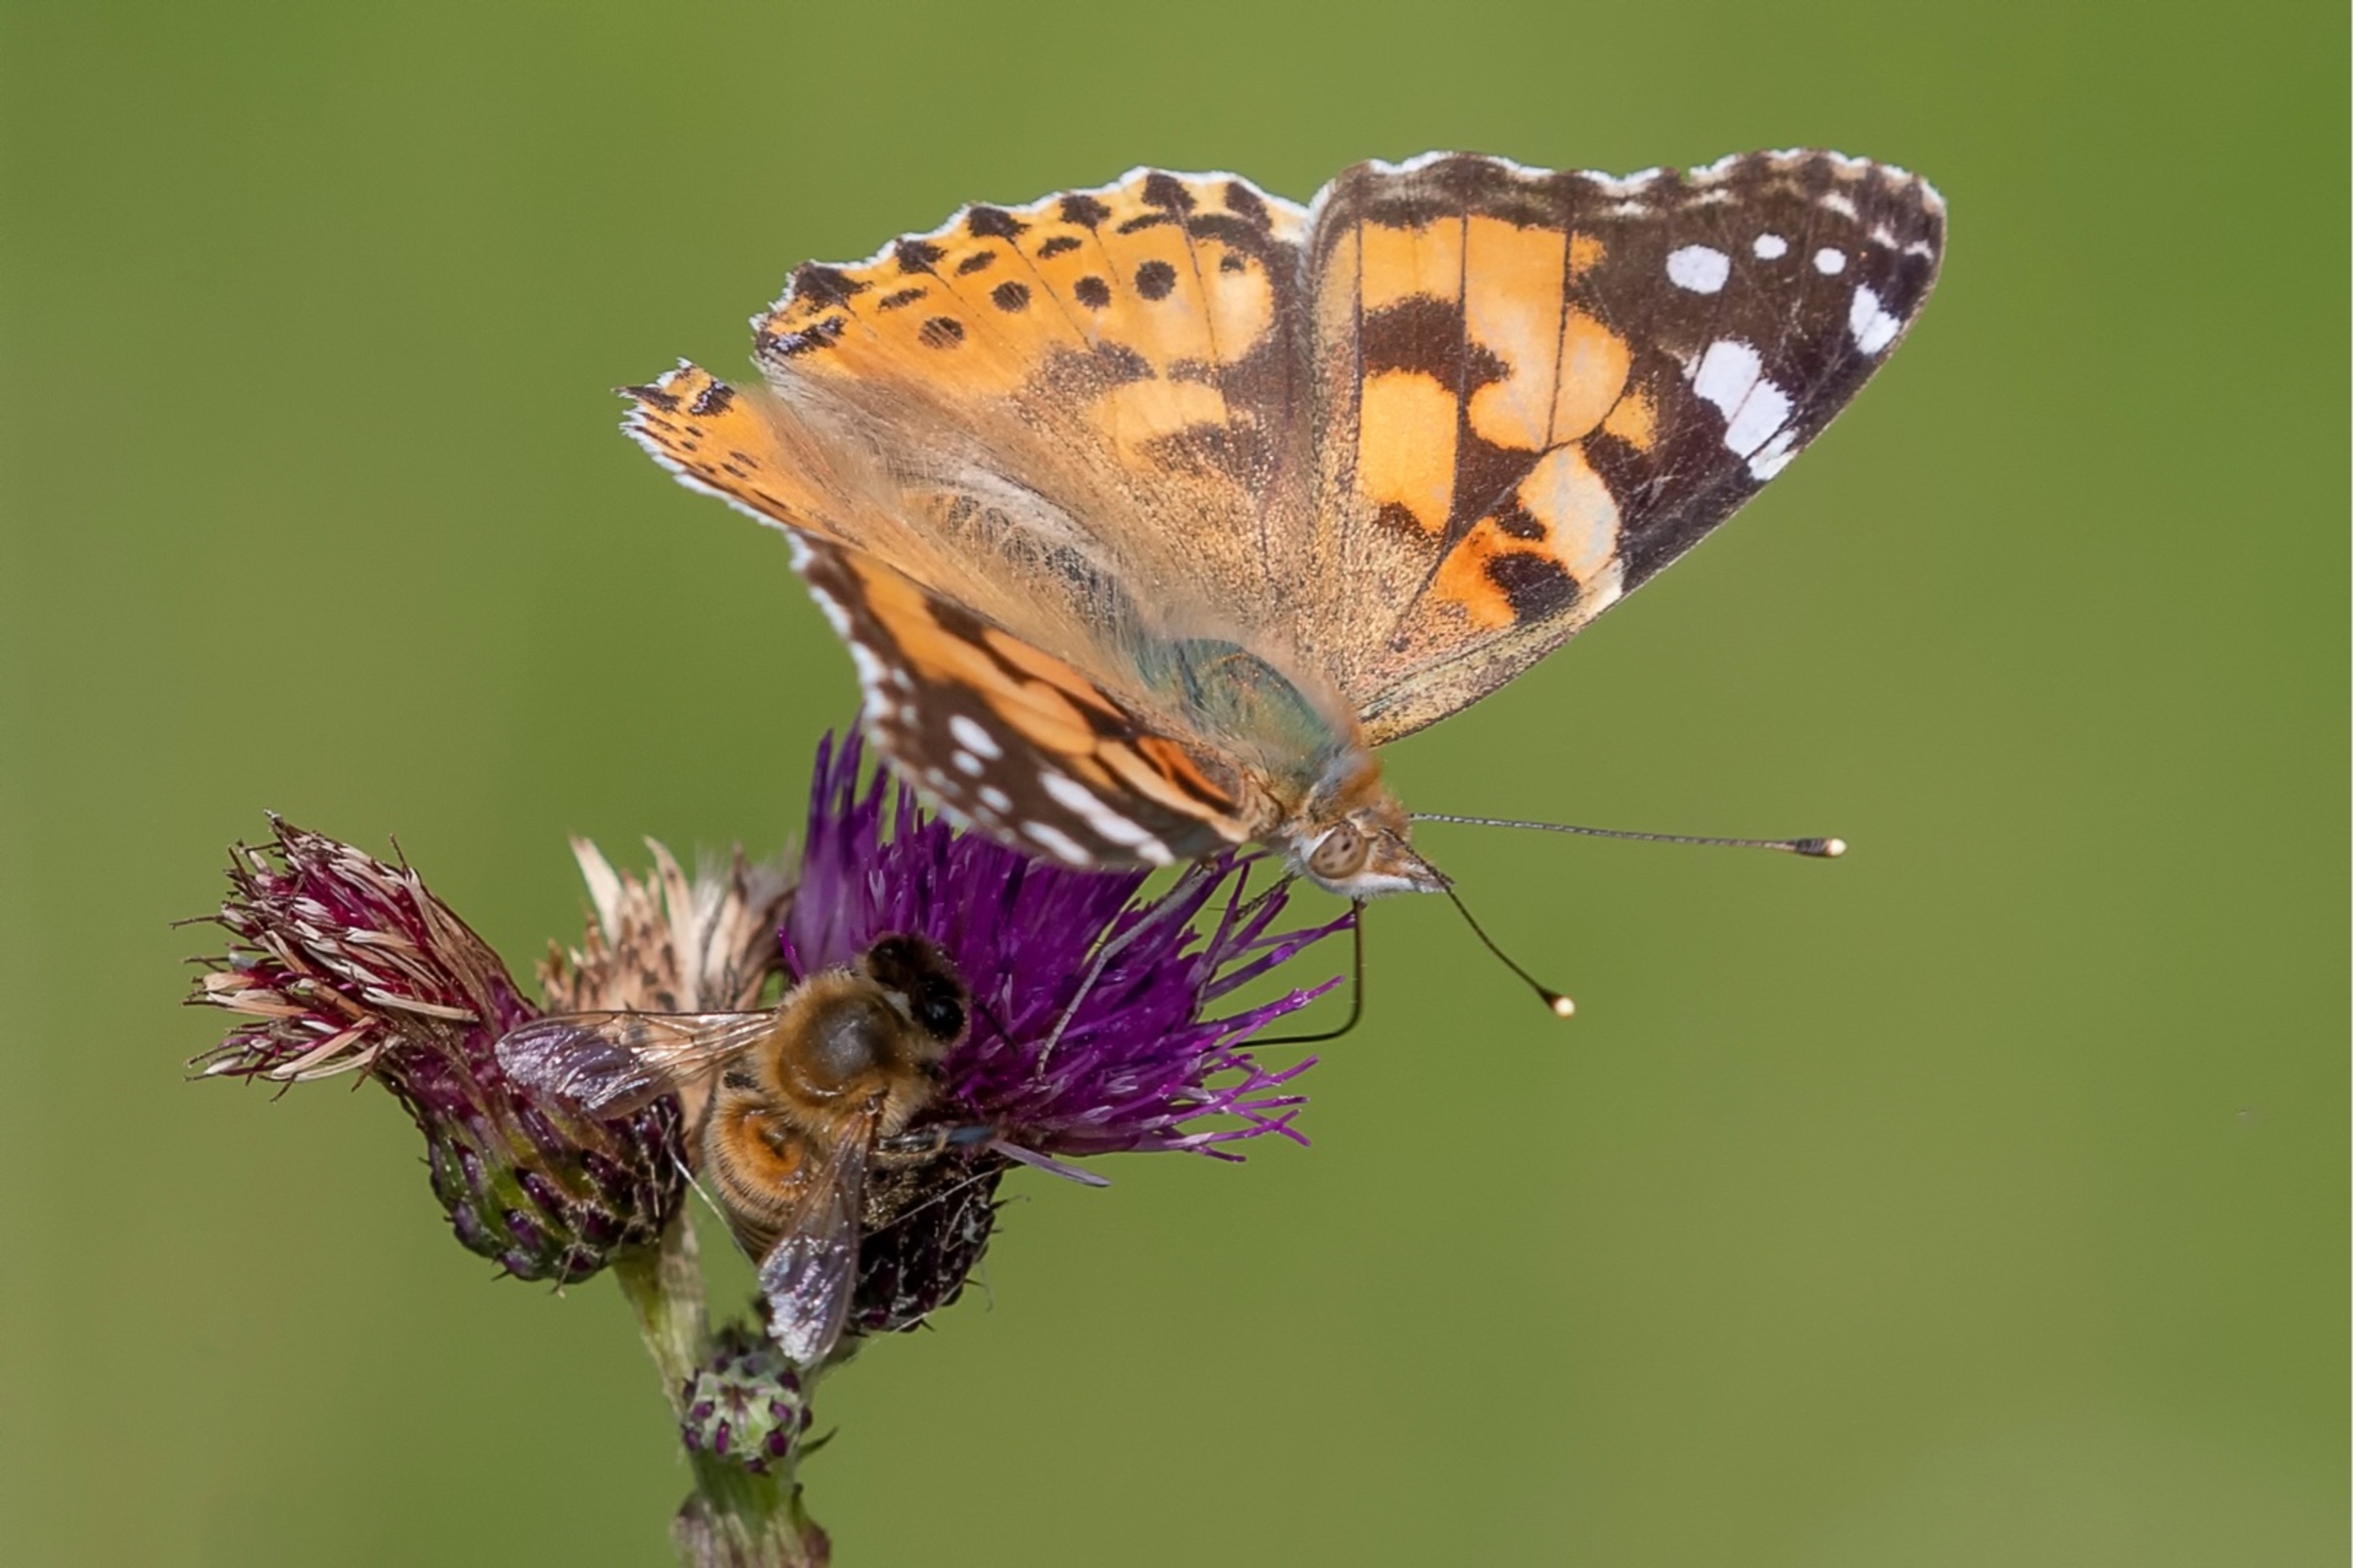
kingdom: Animalia
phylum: Arthropoda
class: Insecta
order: Lepidoptera
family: Nymphalidae
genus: Vanessa
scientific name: Vanessa cardui
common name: Tidselsommerfugl
